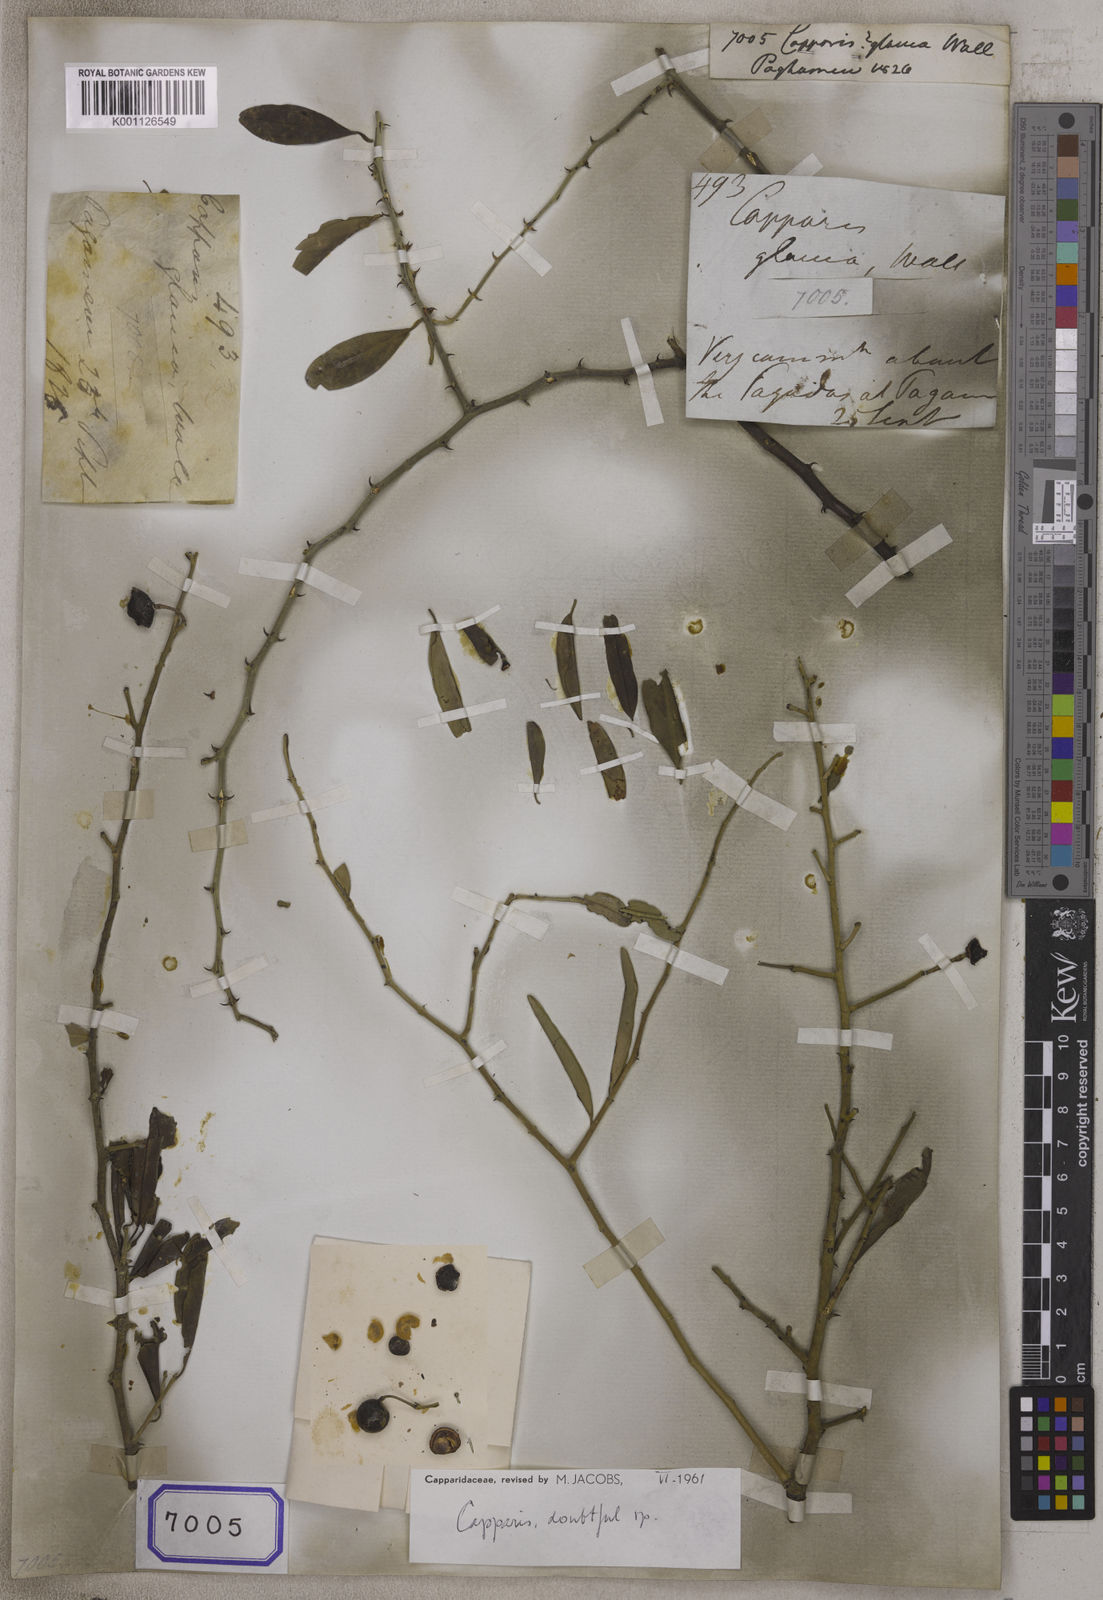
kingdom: Plantae
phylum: Tracheophyta
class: Magnoliopsida
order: Brassicales
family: Capparaceae
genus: Capparis
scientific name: Capparis
